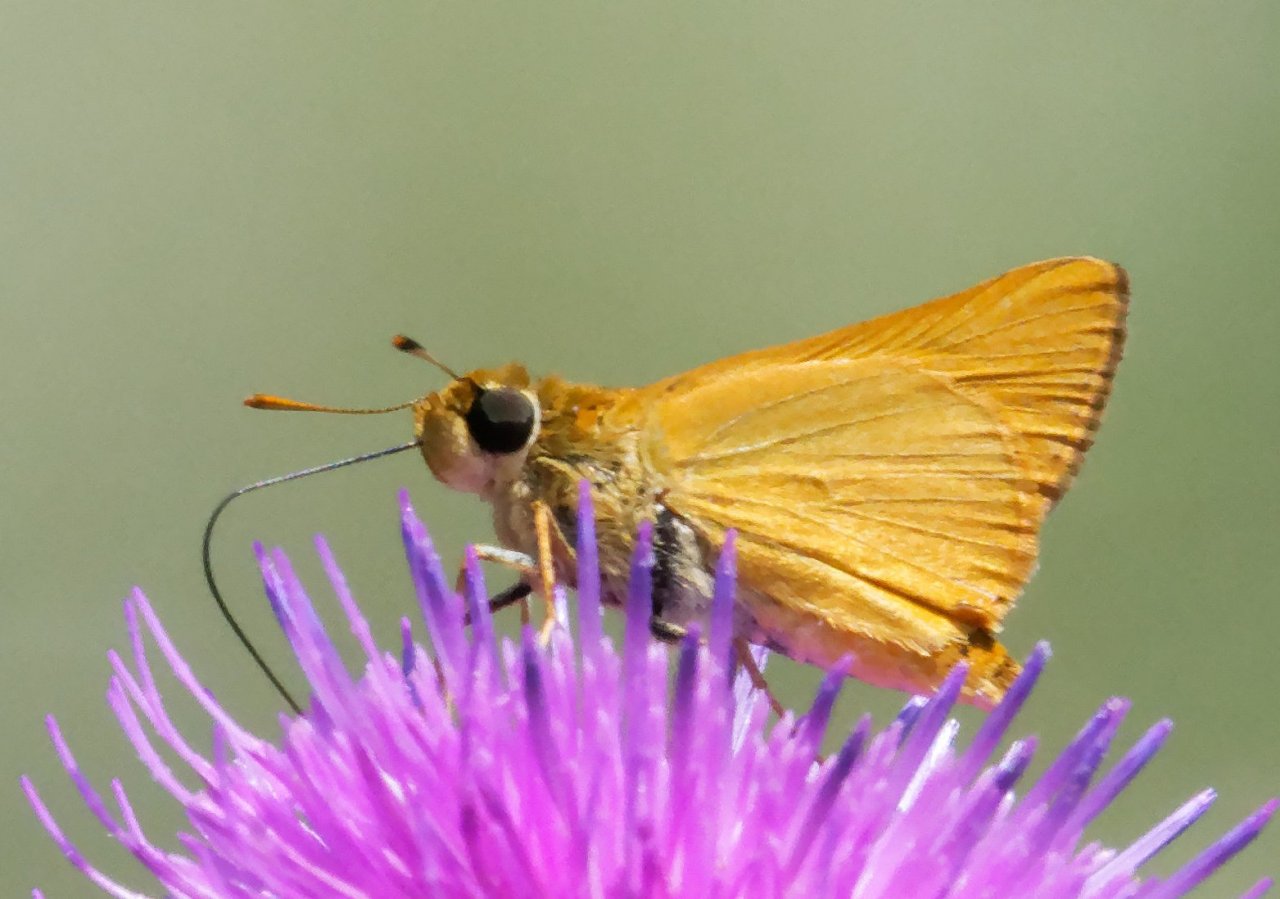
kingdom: Animalia
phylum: Arthropoda
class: Insecta
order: Lepidoptera
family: Hesperiidae
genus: Atrytone
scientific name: Atrytone delaware
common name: Delaware Skipper
